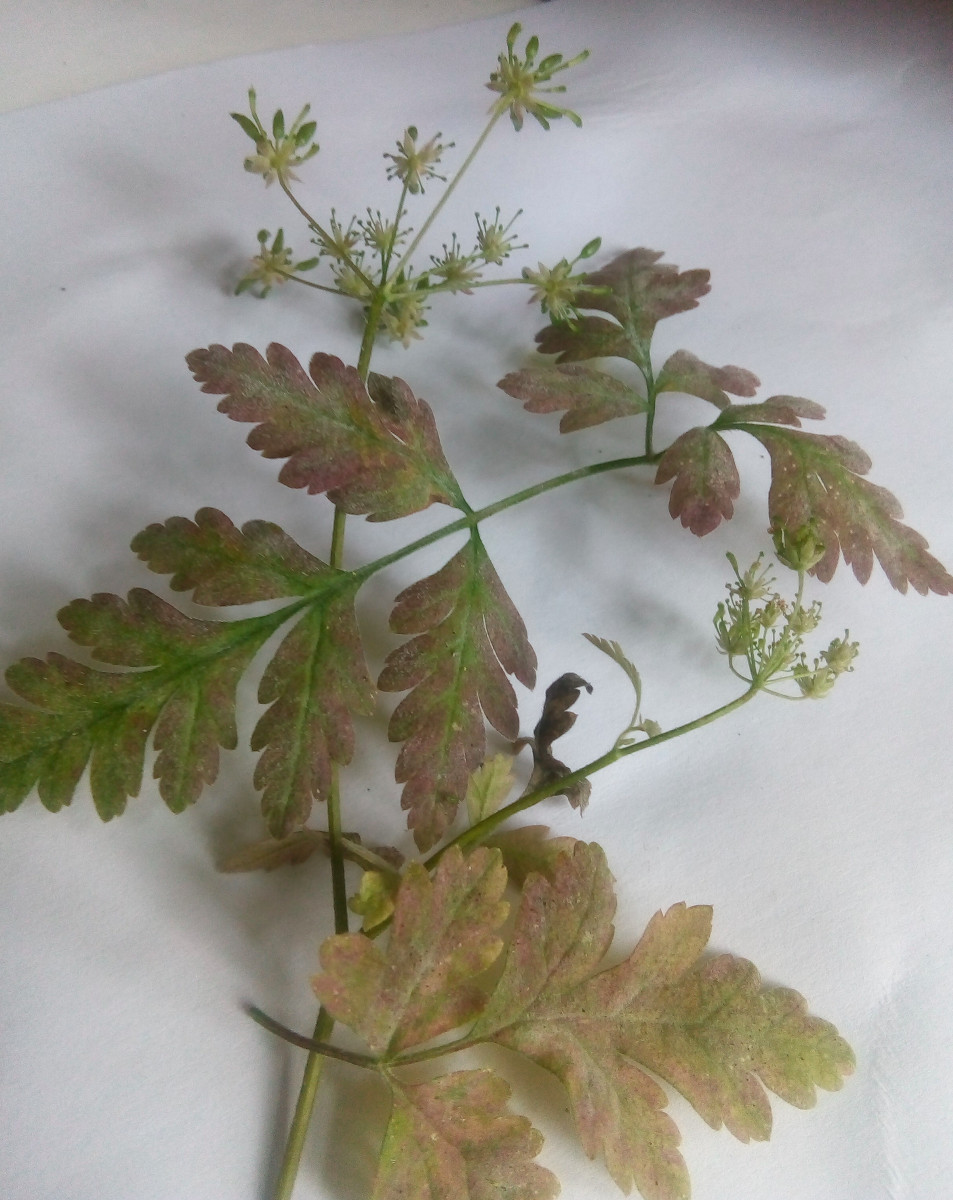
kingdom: Fungi
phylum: Ascomycota
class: Leotiomycetes
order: Helotiales
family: Erysiphaceae
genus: Erysiphe
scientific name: Erysiphe heraclei
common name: skærmplante-meldug
